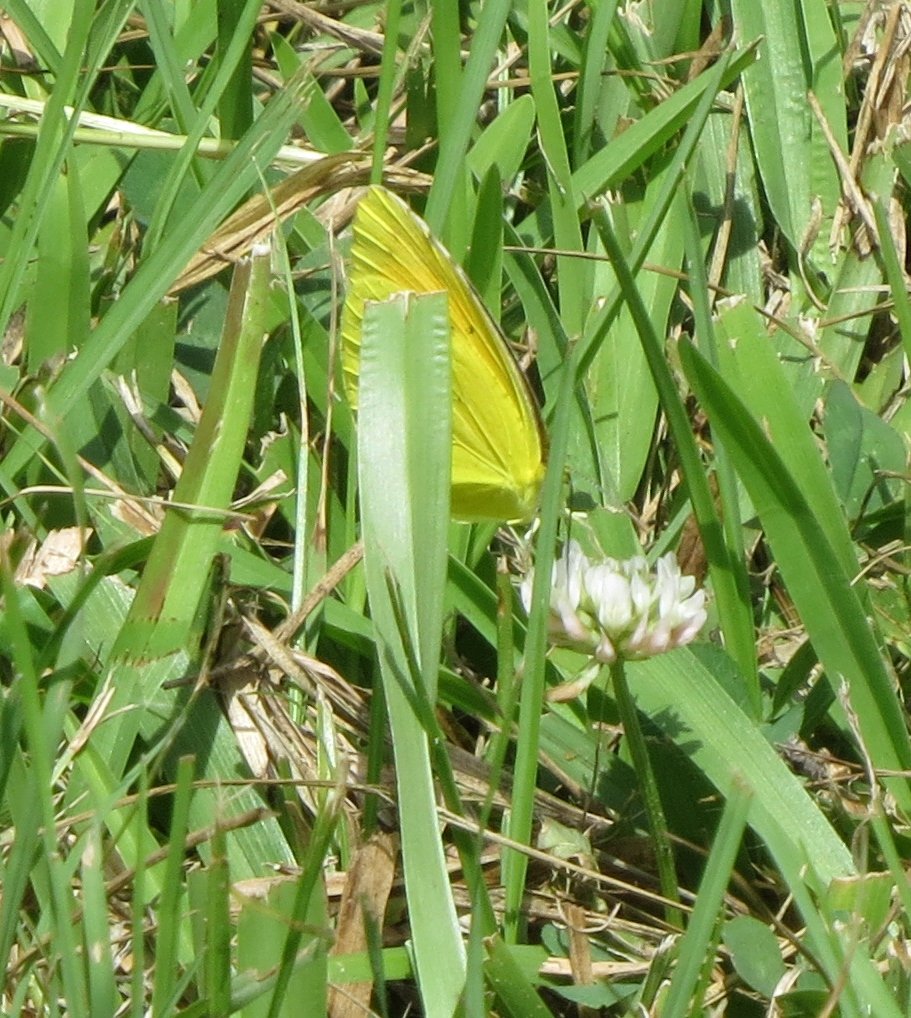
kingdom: Animalia
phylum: Arthropoda
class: Insecta
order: Lepidoptera
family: Pieridae
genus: Abaeis
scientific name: Abaeis nicippe
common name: Sleepy Orange
